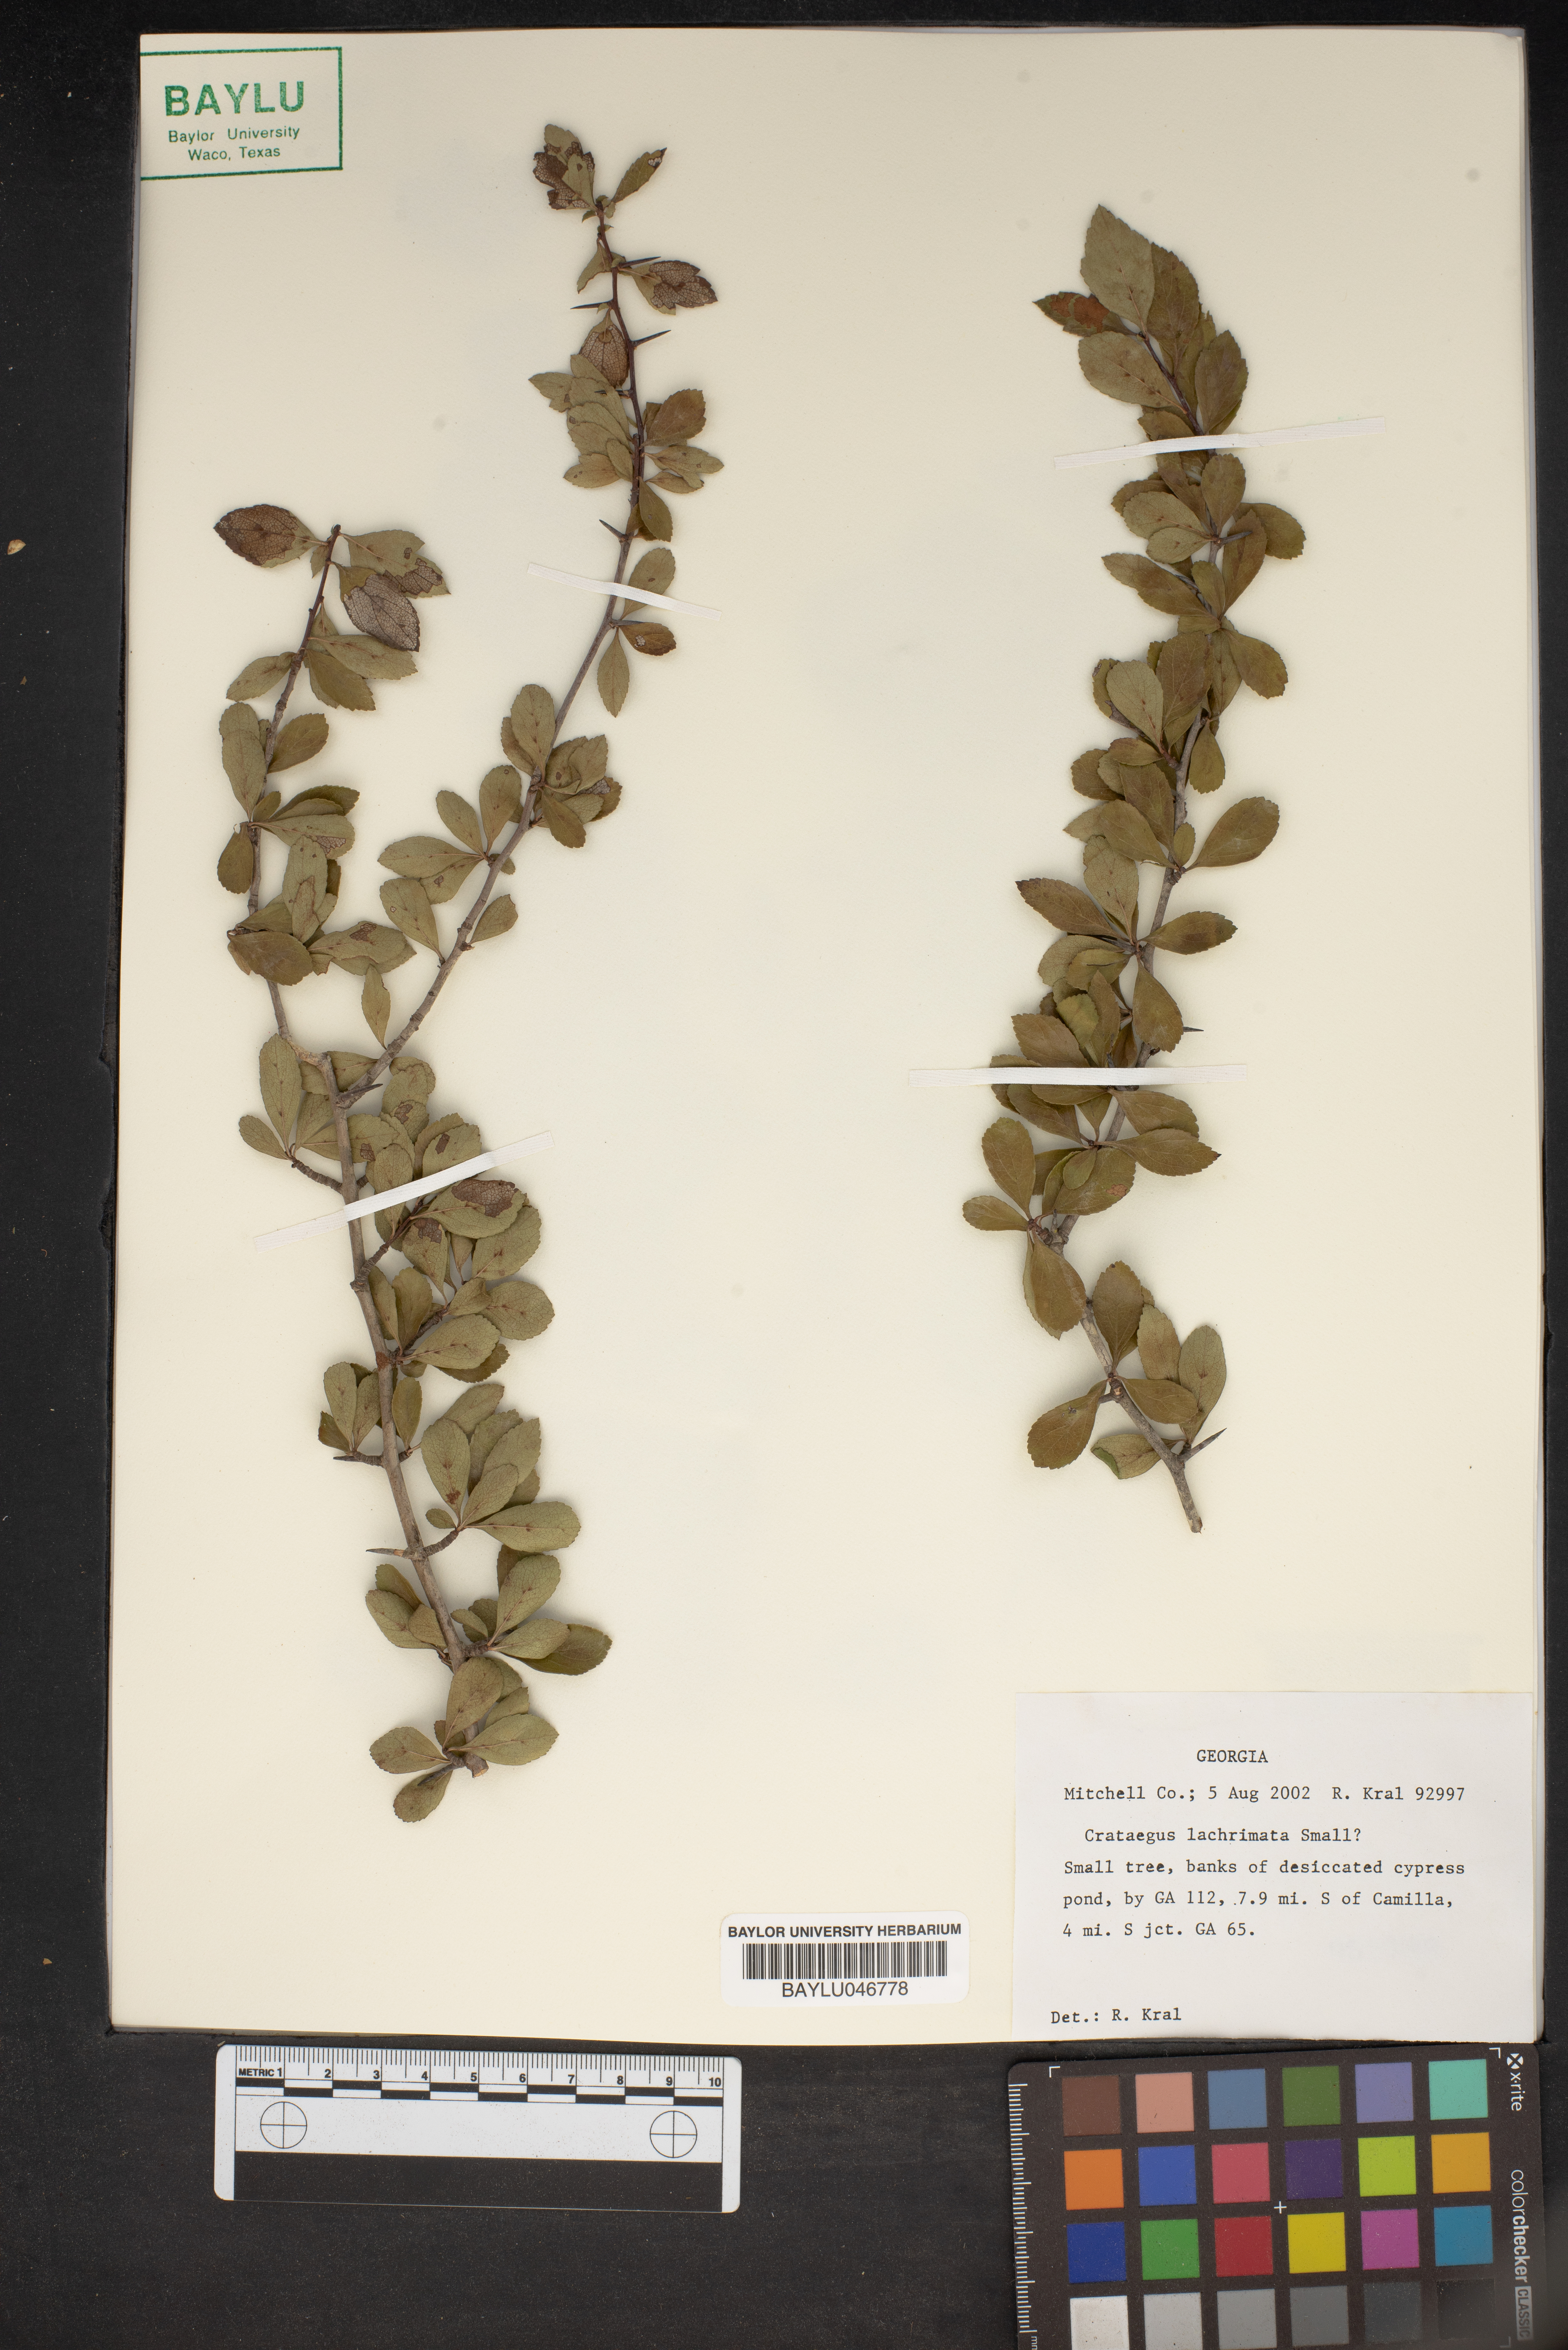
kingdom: Plantae
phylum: Tracheophyta
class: Magnoliopsida
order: Rosales
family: Rosaceae
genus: Crataegus
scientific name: Crataegus lacrimata
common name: Weeping hawthorn
